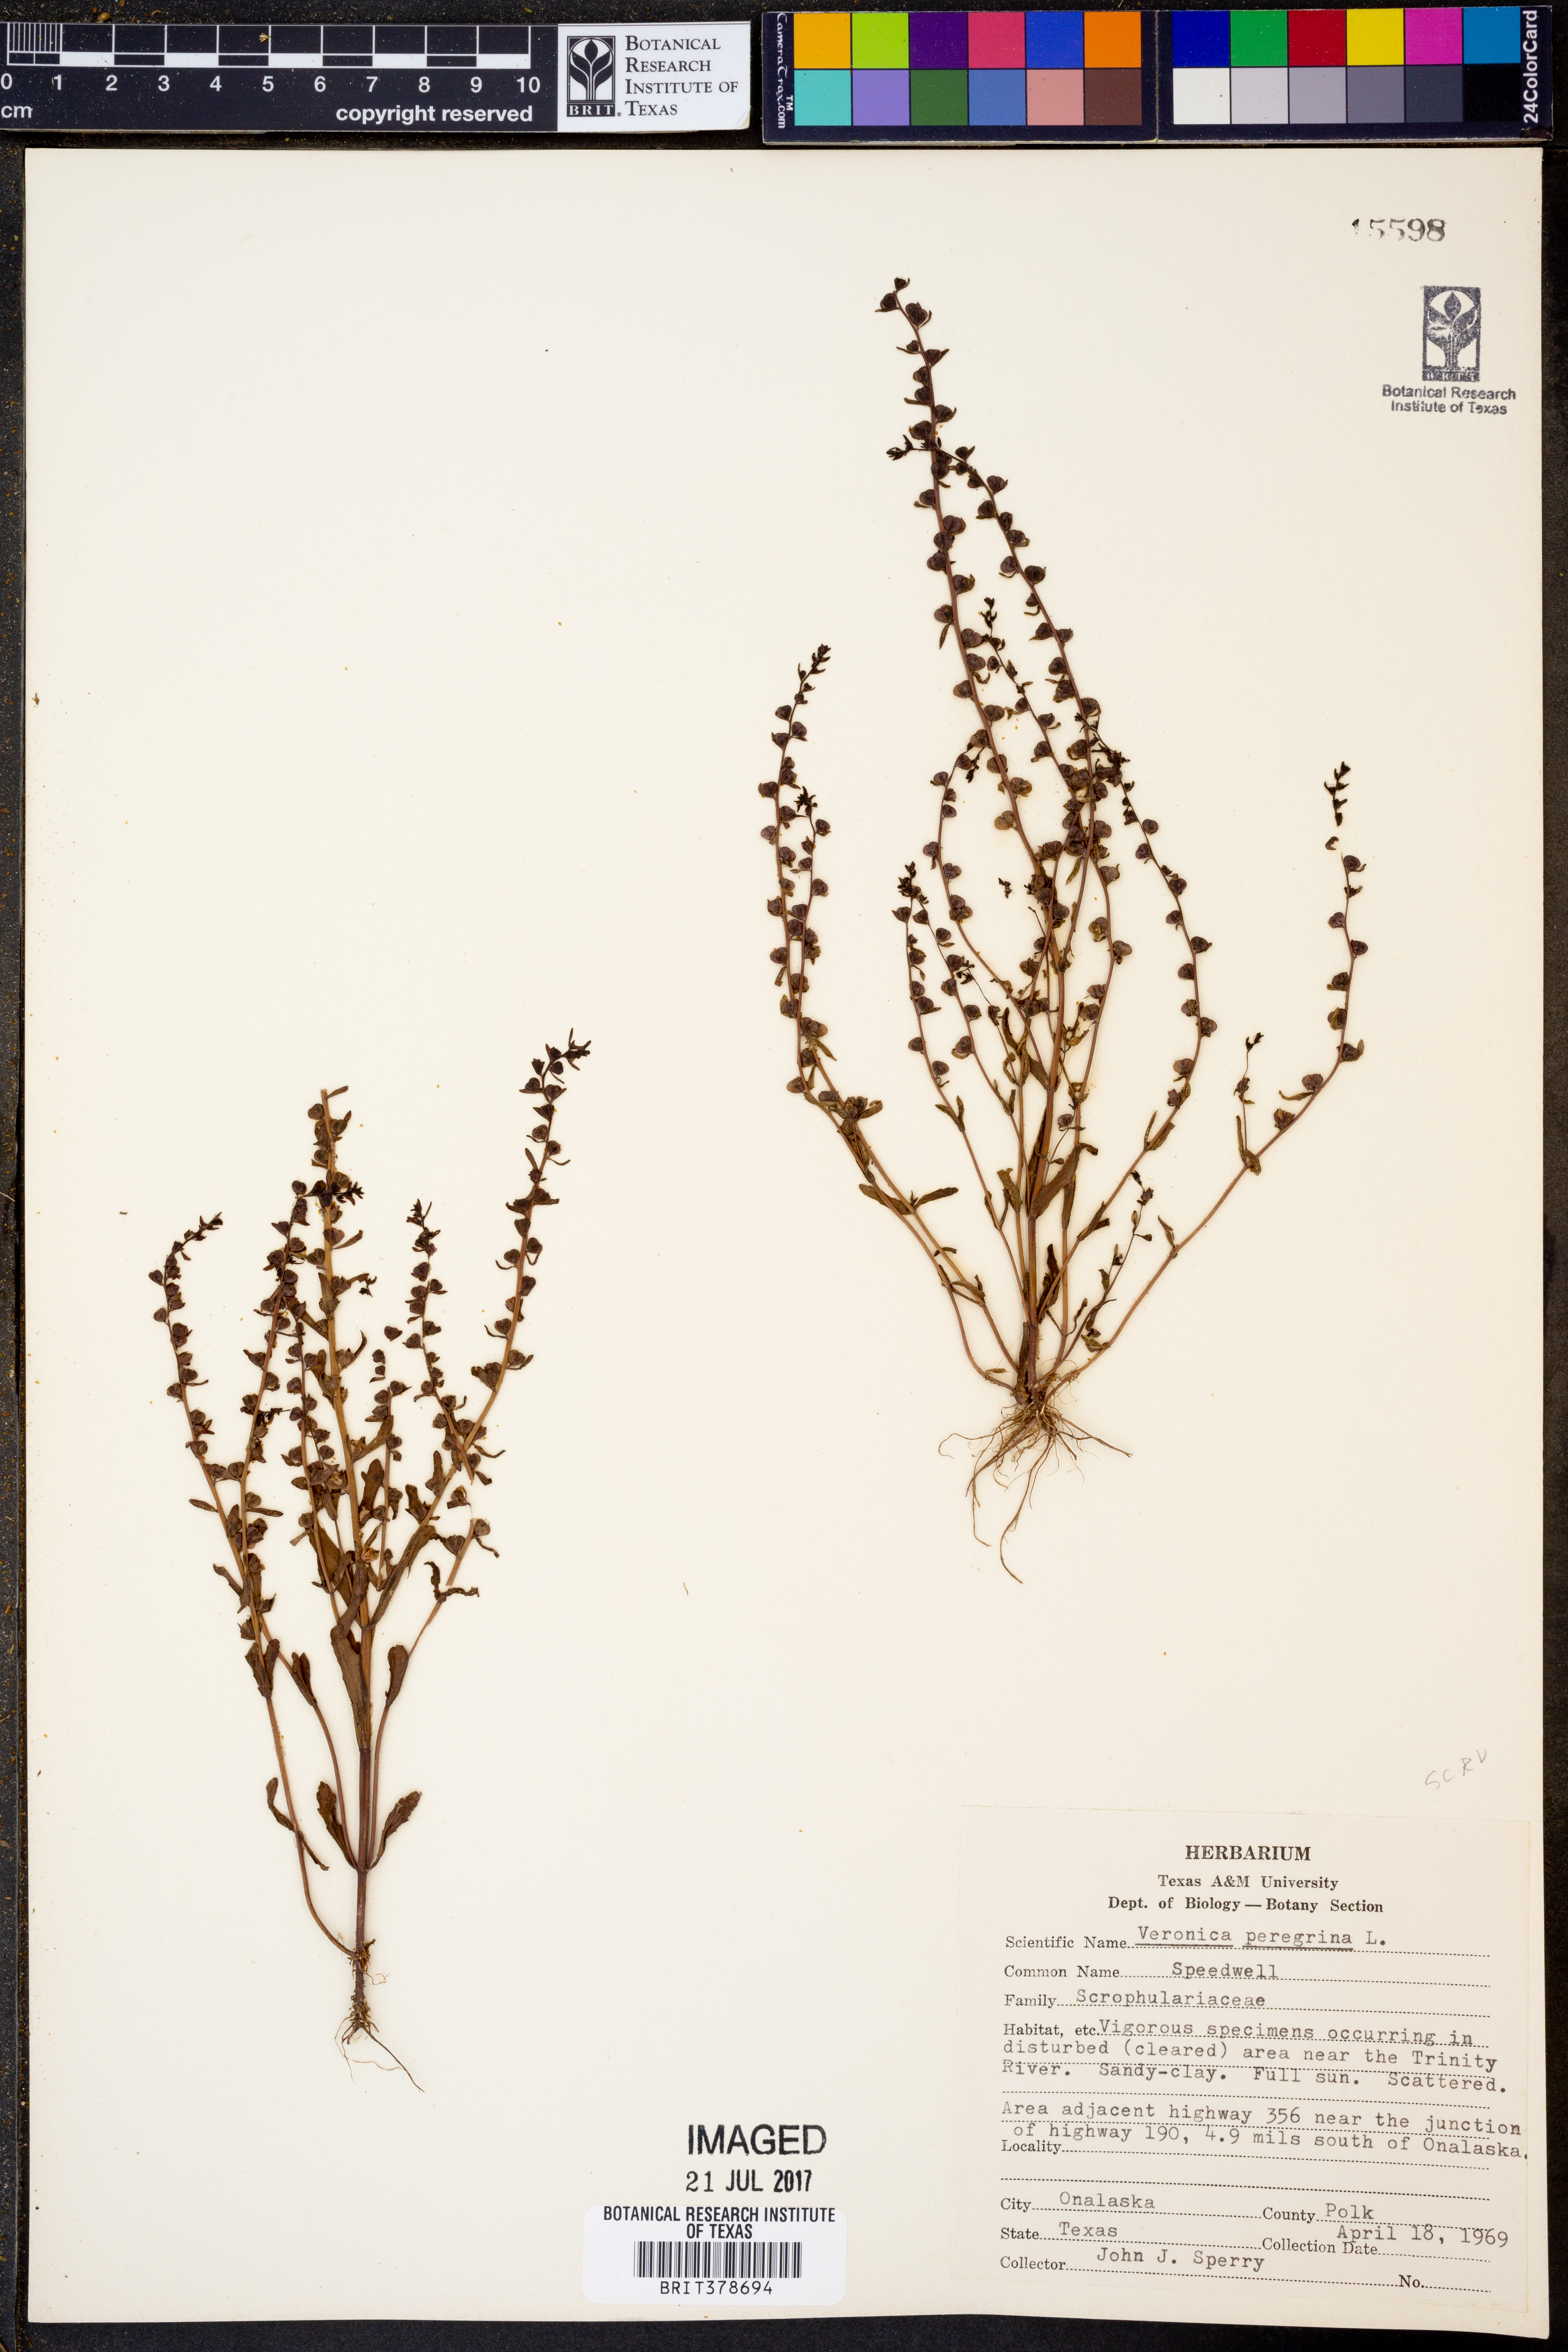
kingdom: Plantae
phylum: Tracheophyta
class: Magnoliopsida
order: Lamiales
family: Plantaginaceae
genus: Veronica
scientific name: Veronica peregrina
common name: Neckweed
